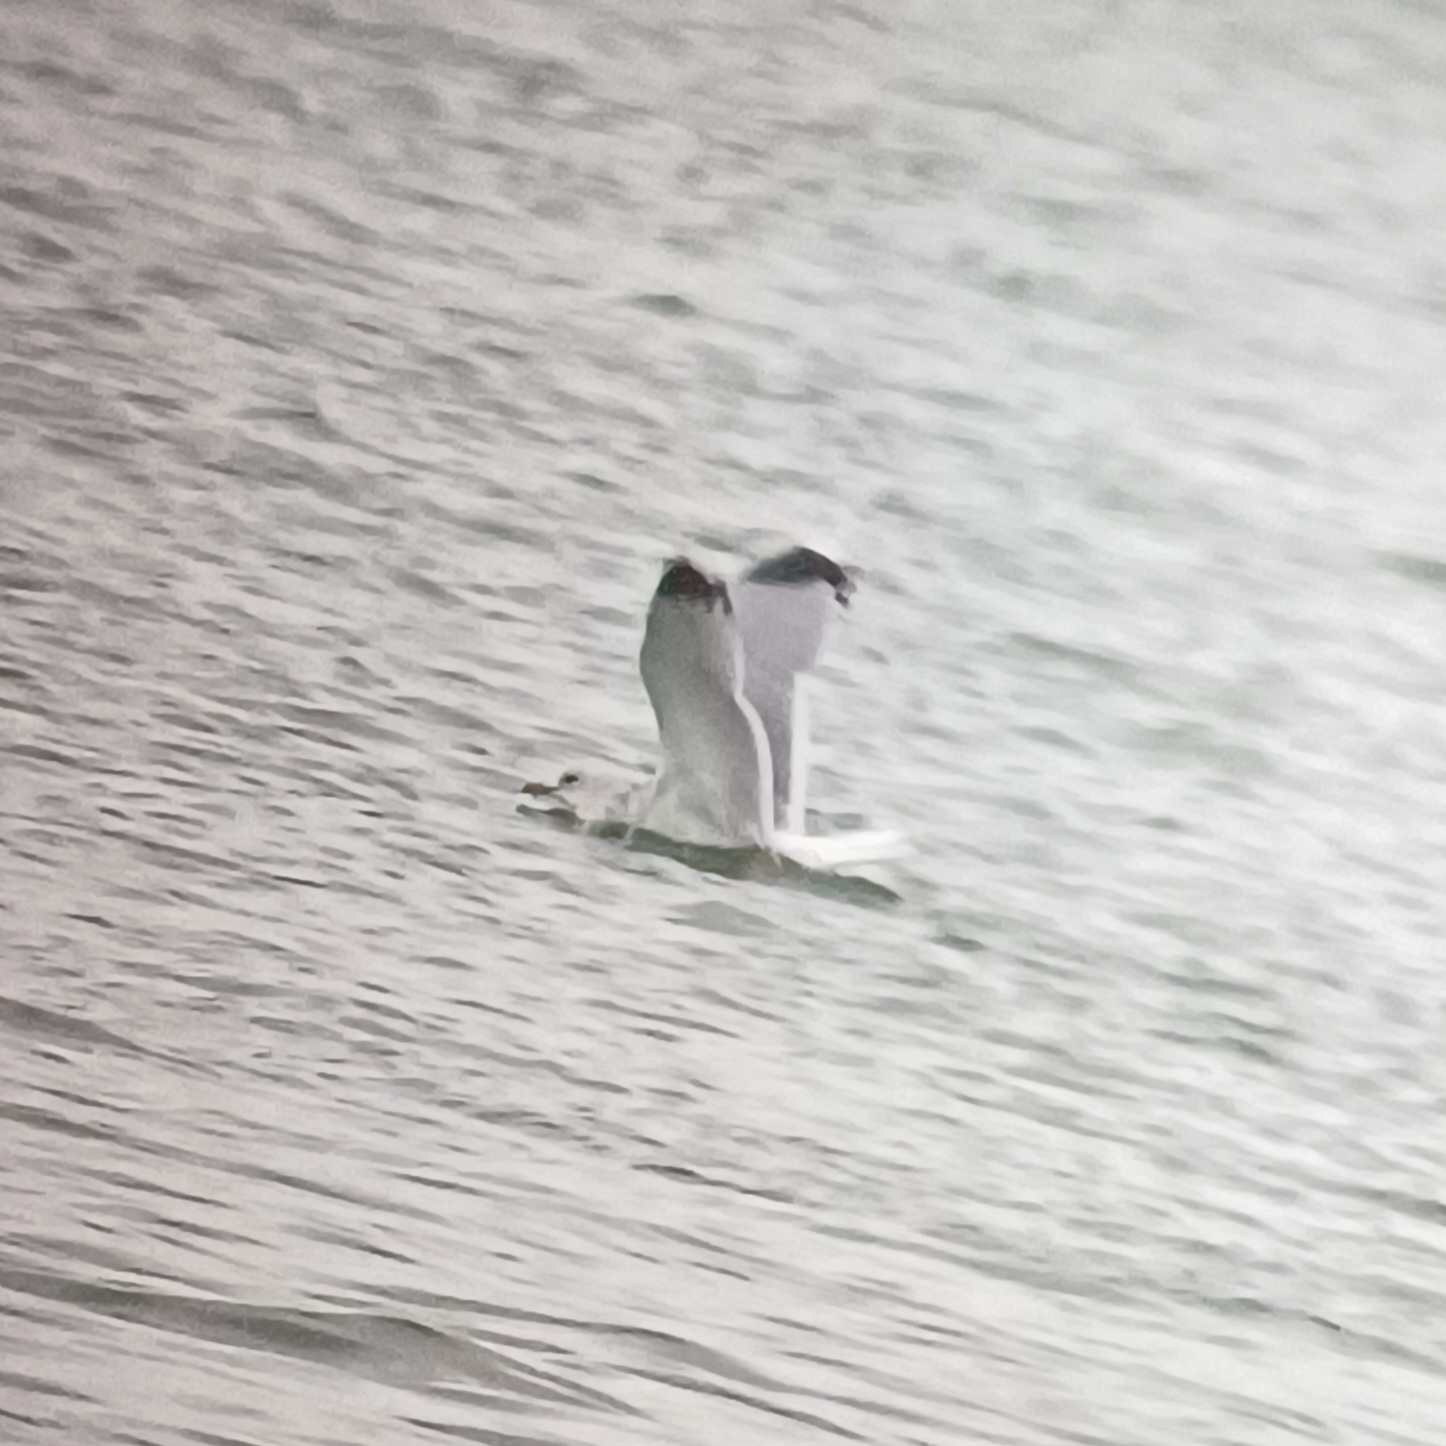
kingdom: Animalia
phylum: Chordata
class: Aves
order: Charadriiformes
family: Laridae
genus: Larus
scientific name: Larus canus
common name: Stormmåge
